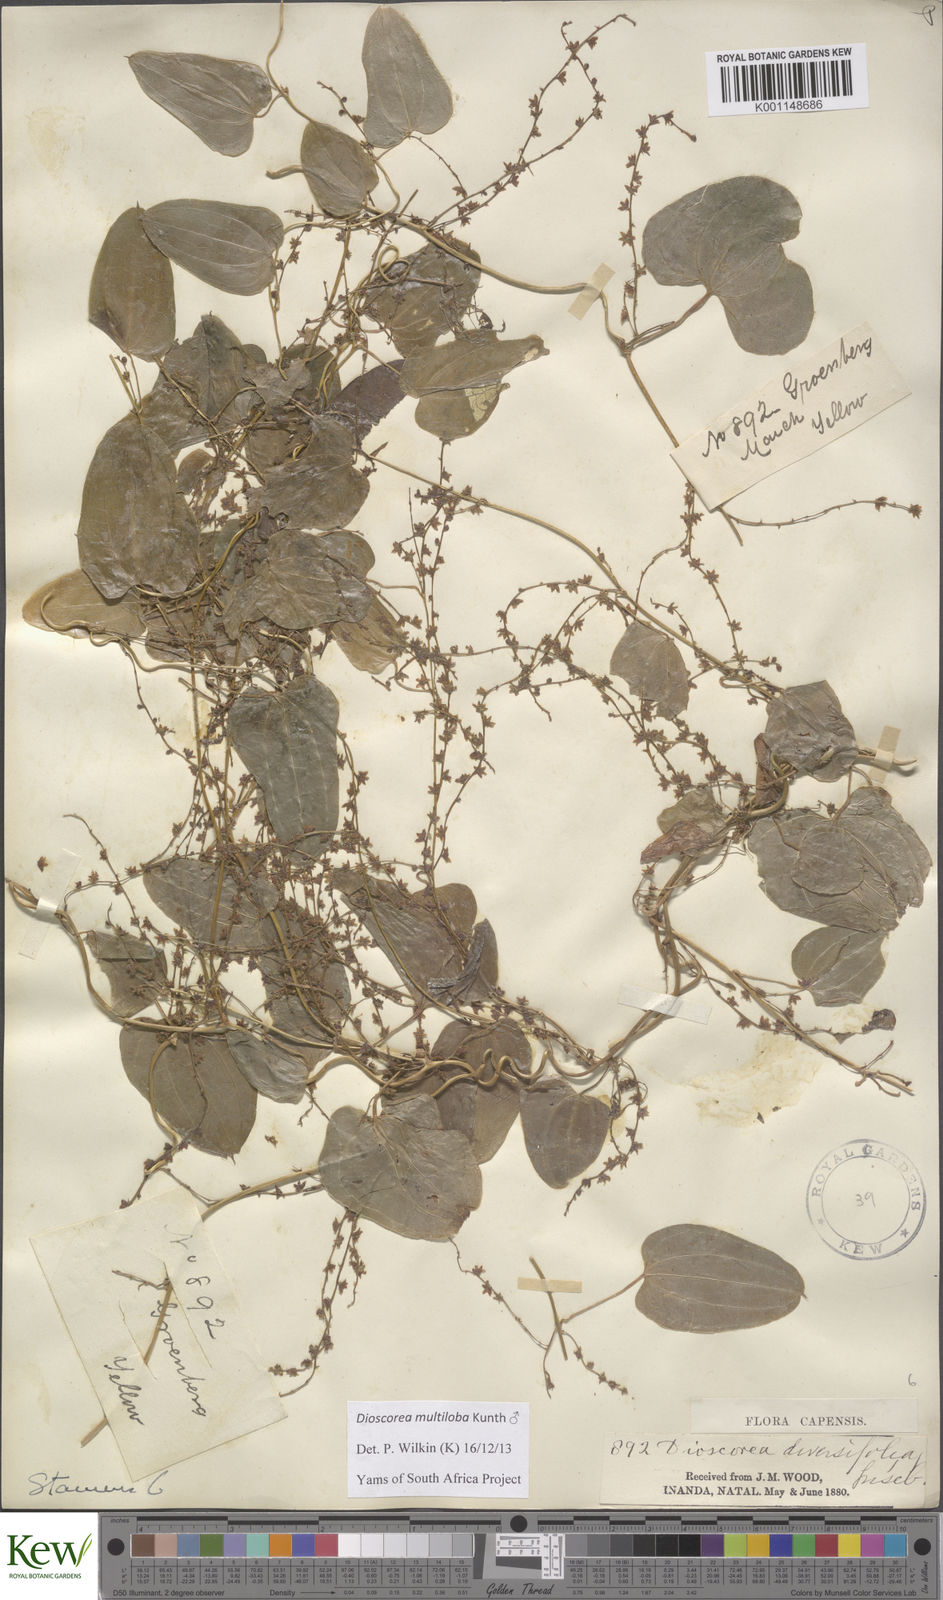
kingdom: Plantae
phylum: Tracheophyta
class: Liliopsida
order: Dioscoreales
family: Dioscoreaceae
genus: Dioscorea
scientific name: Dioscorea multiloba
